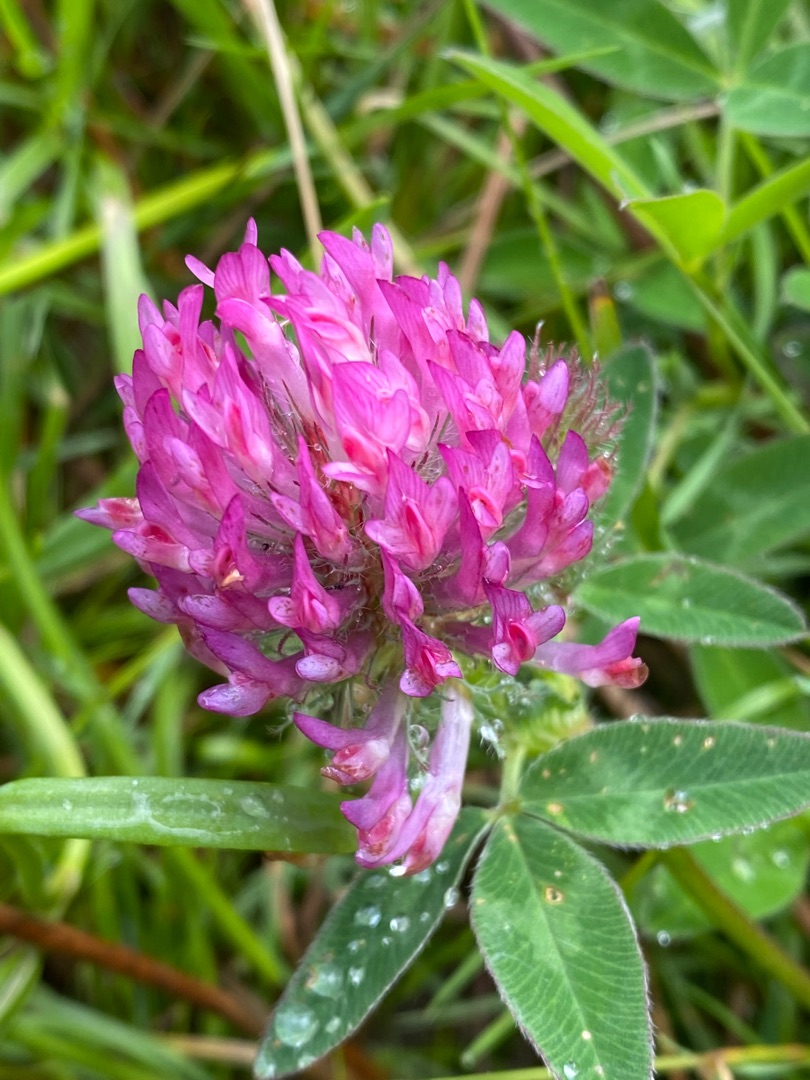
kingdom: Plantae
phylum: Tracheophyta
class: Magnoliopsida
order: Fabales
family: Fabaceae
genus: Trifolium
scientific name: Trifolium medium
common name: Bugtet kløver
